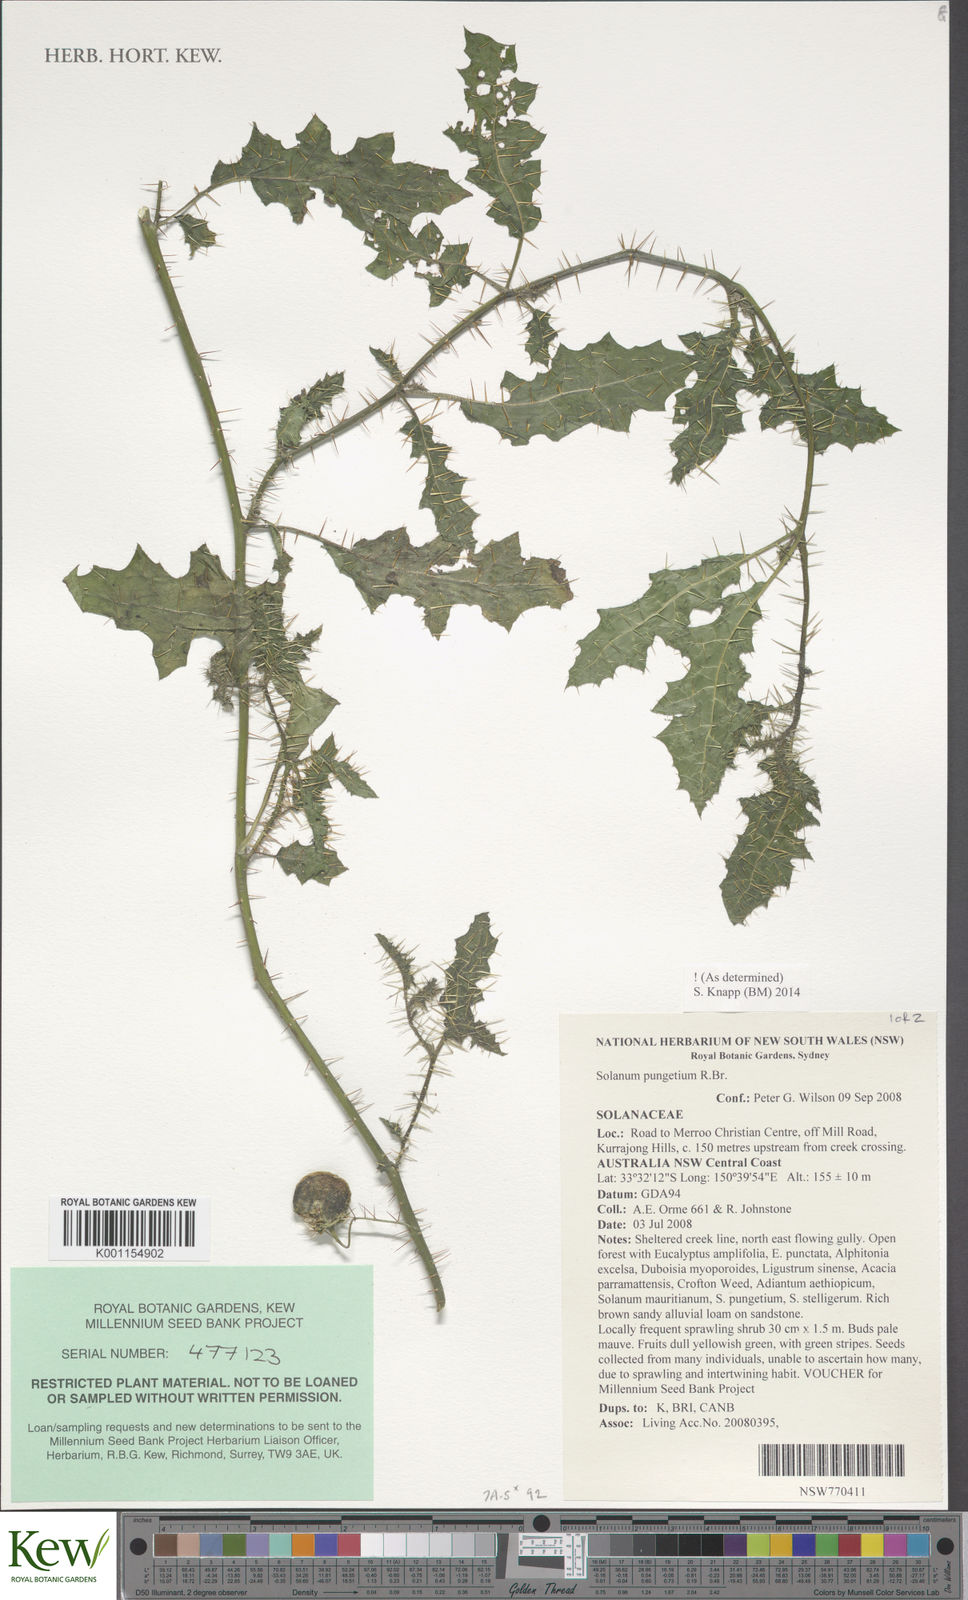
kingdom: Plantae
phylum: Tracheophyta
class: Magnoliopsida
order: Solanales
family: Solanaceae
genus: Solanum
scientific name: Solanum pungetium
